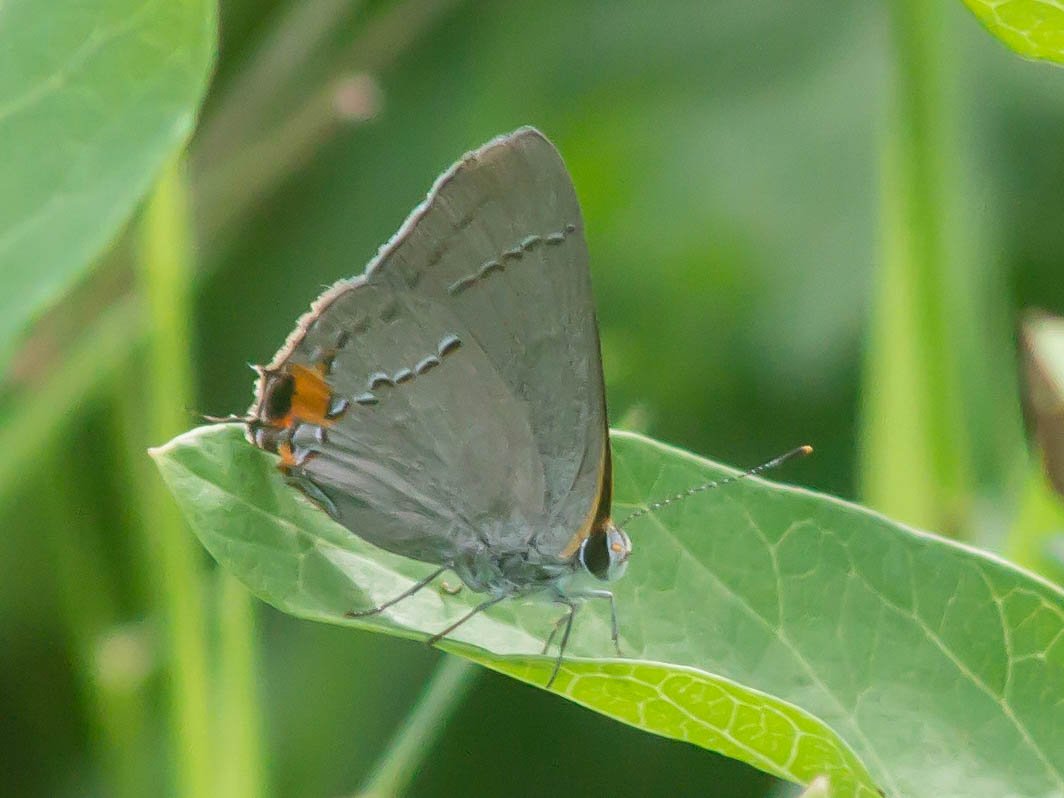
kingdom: Animalia
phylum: Arthropoda
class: Insecta
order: Lepidoptera
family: Lycaenidae
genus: Strymon
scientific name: Strymon melinus
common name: Gray Hairstreak
